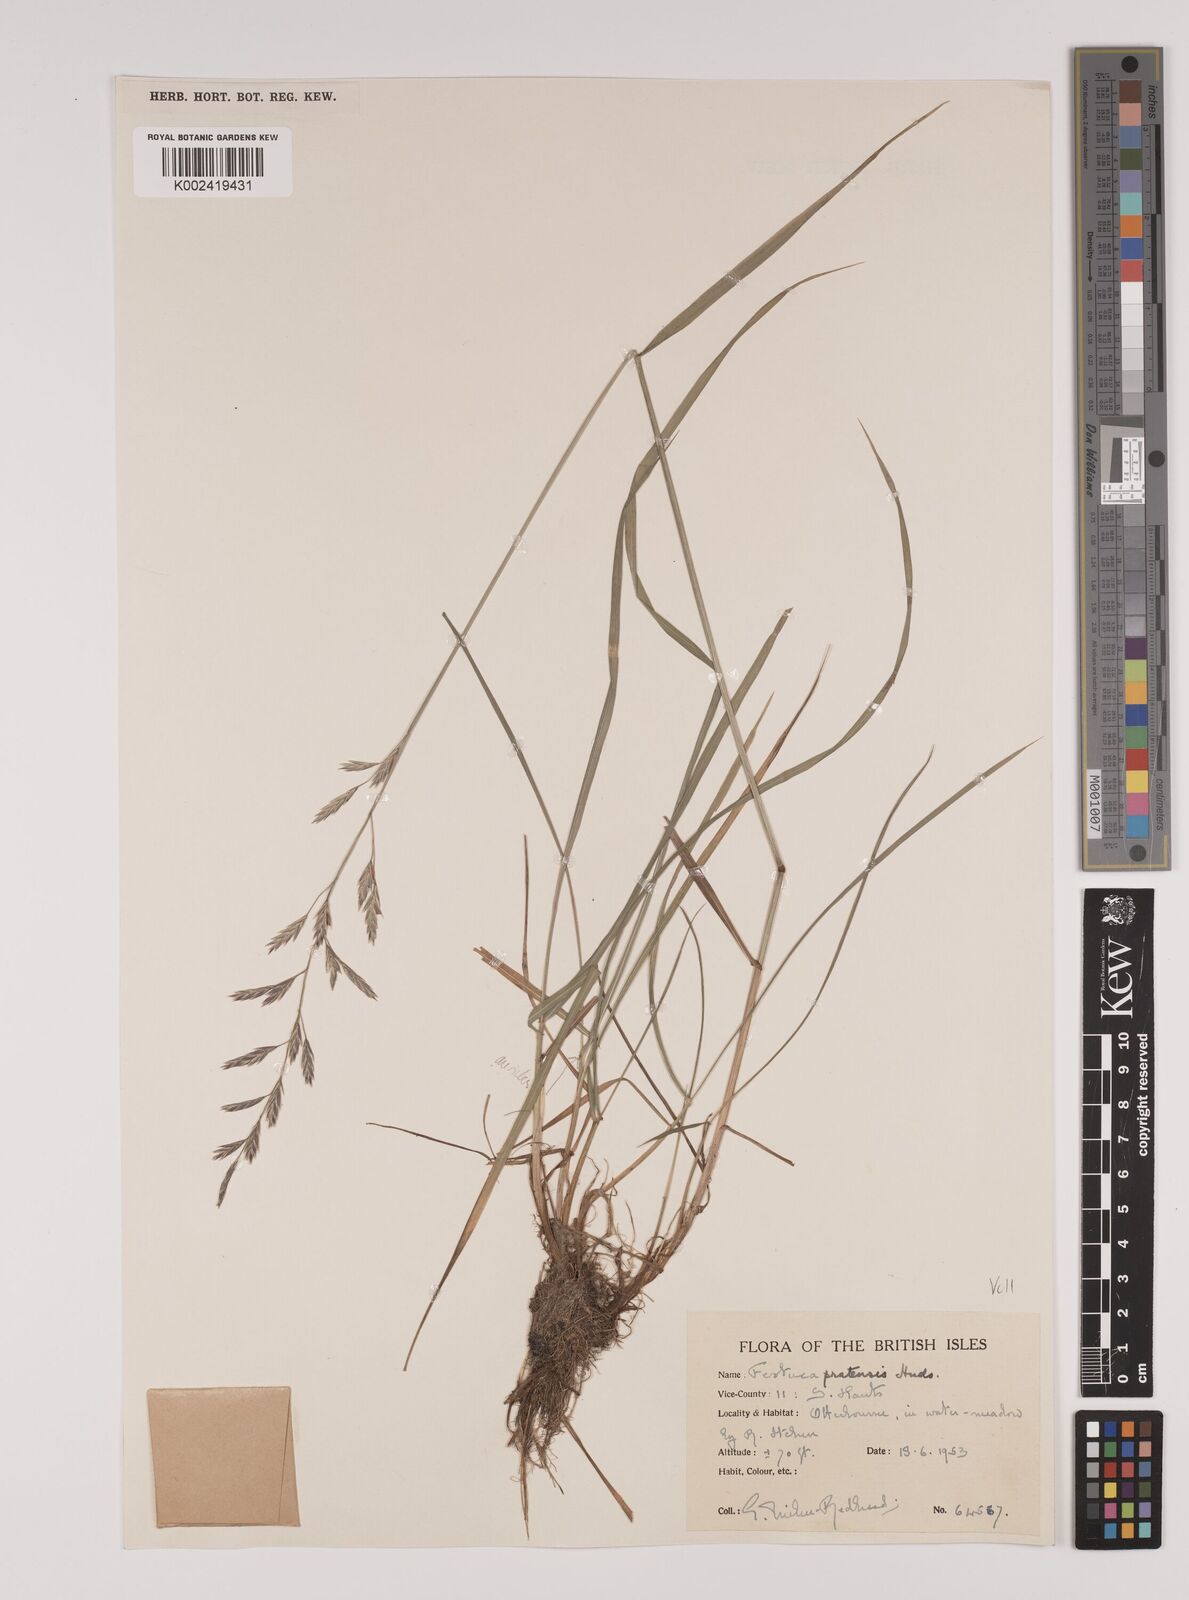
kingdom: Plantae
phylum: Tracheophyta
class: Liliopsida
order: Poales
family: Poaceae
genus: Lolium
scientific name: Lolium pratense
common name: Dover grass
